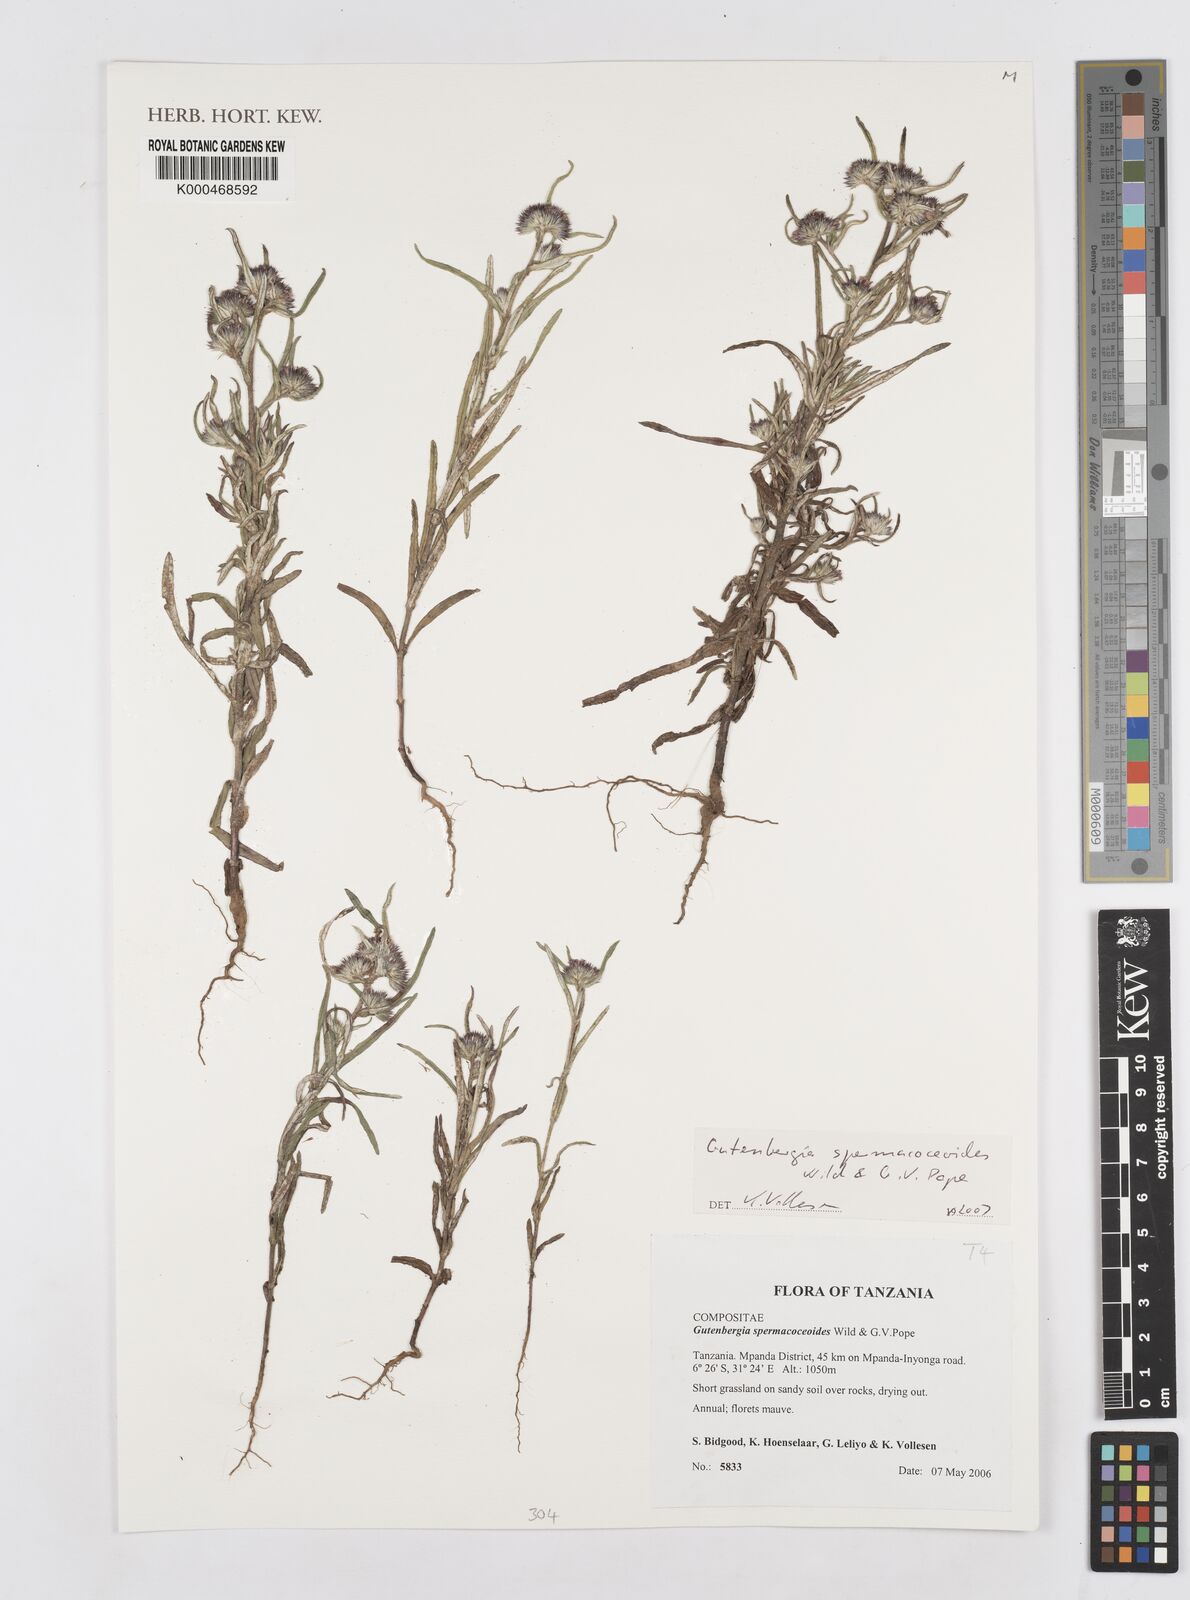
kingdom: Plantae
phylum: Tracheophyta
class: Magnoliopsida
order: Asterales
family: Asteraceae
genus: Gutenbergia
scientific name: Gutenbergia spermacoceoides
